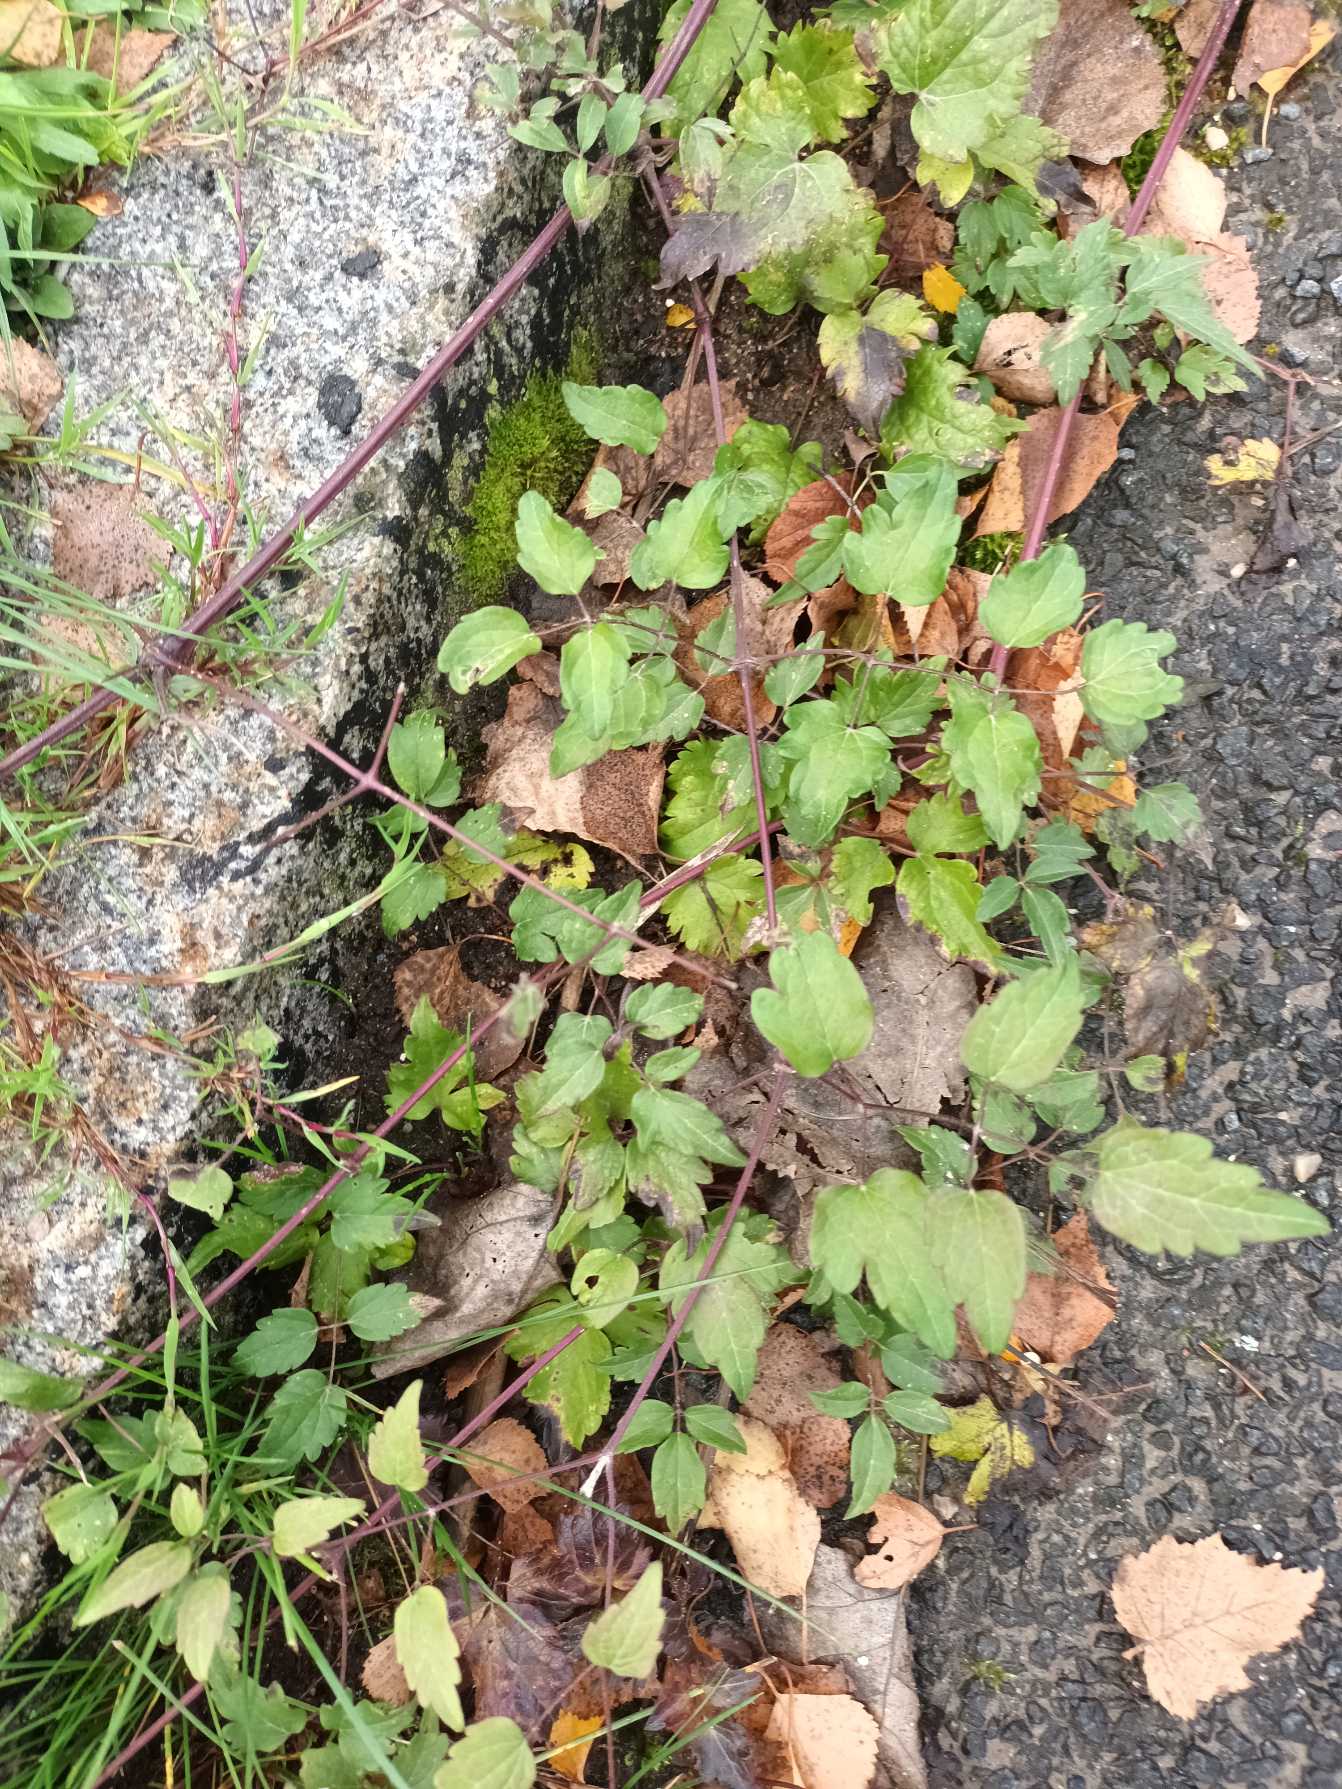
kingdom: Plantae
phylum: Tracheophyta
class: Magnoliopsida
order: Ranunculales
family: Ranunculaceae
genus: Clematis
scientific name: Clematis vitalba
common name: Skovranke
